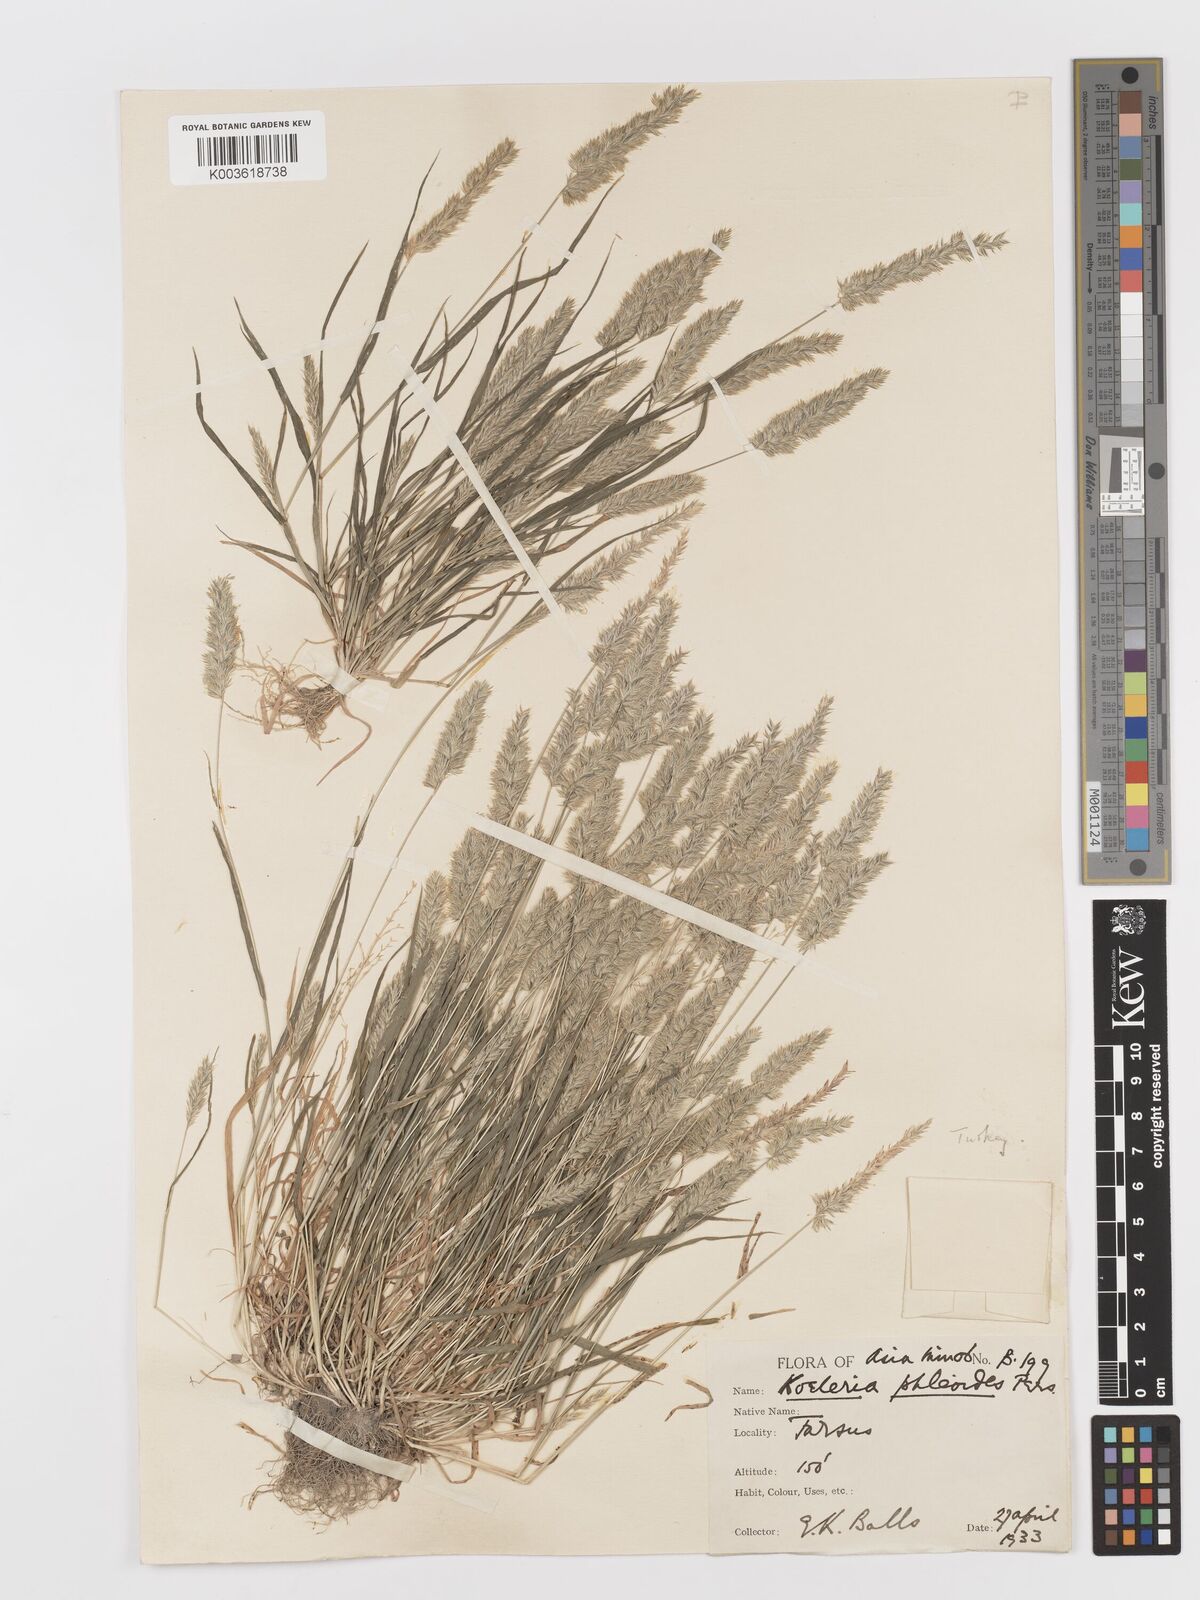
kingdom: Plantae
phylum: Tracheophyta
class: Liliopsida
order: Poales
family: Poaceae
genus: Rostraria
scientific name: Rostraria cristata
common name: Mediterranean hair-grass
